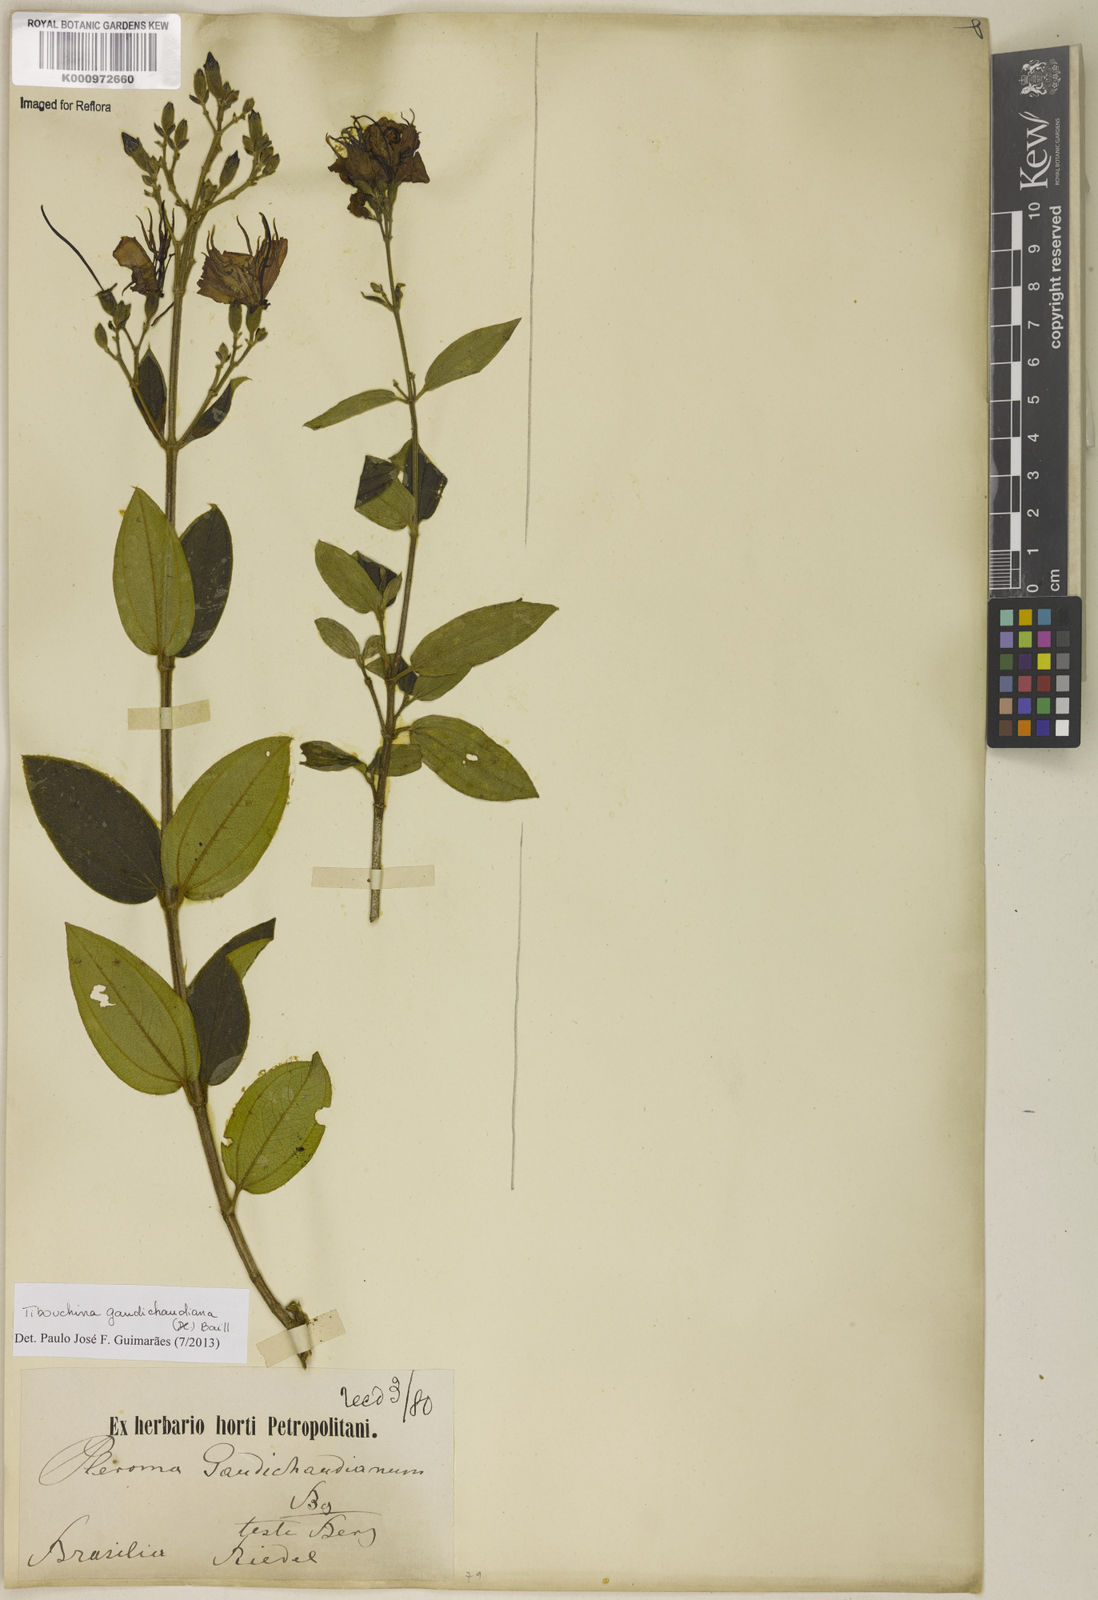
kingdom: Plantae
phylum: Tracheophyta
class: Magnoliopsida
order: Myrtales
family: Melastomataceae
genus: Pleroma
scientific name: Pleroma gaudichaudianum
